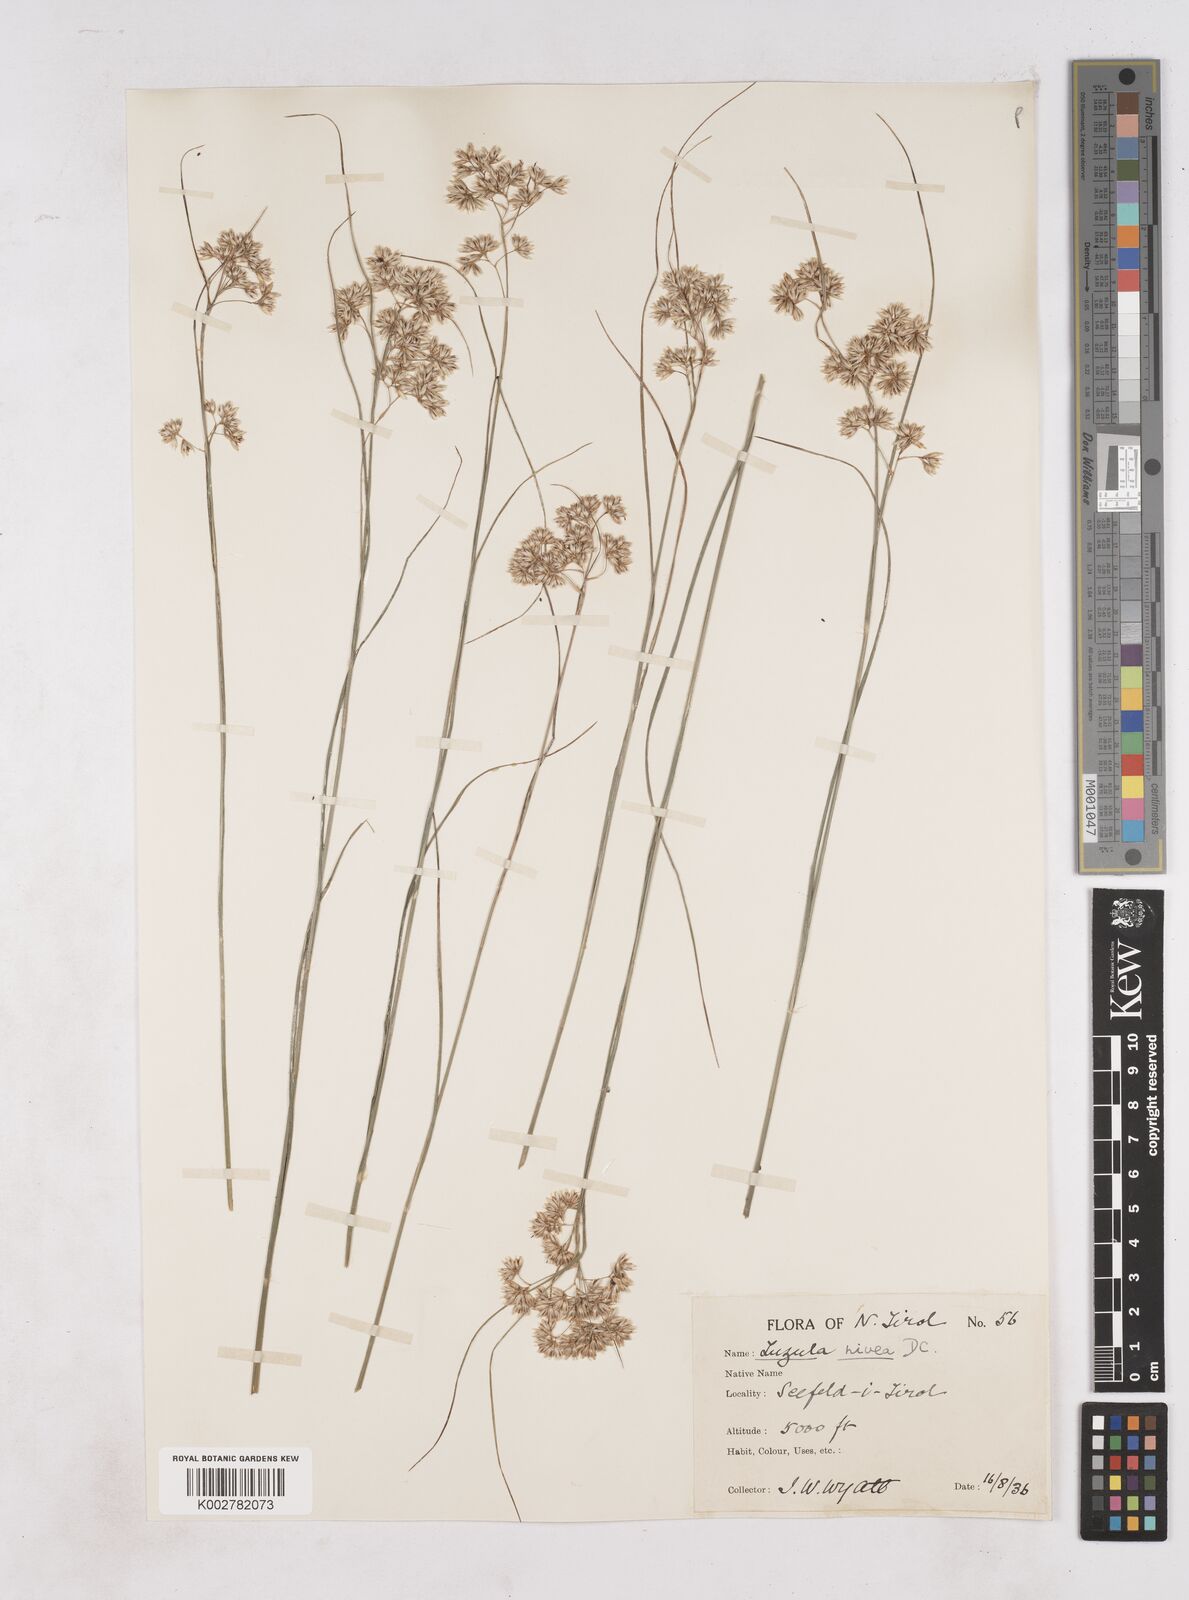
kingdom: Plantae
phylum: Tracheophyta
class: Liliopsida
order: Poales
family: Juncaceae
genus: Luzula
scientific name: Luzula nivea
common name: Snow-white wood-rush
